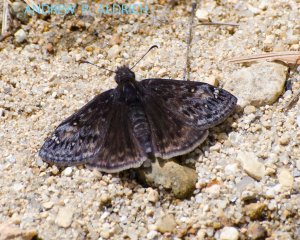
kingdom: Animalia
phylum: Arthropoda
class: Insecta
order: Lepidoptera
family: Hesperiidae
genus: Gesta
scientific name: Gesta
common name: Juvenal's Duskywing
